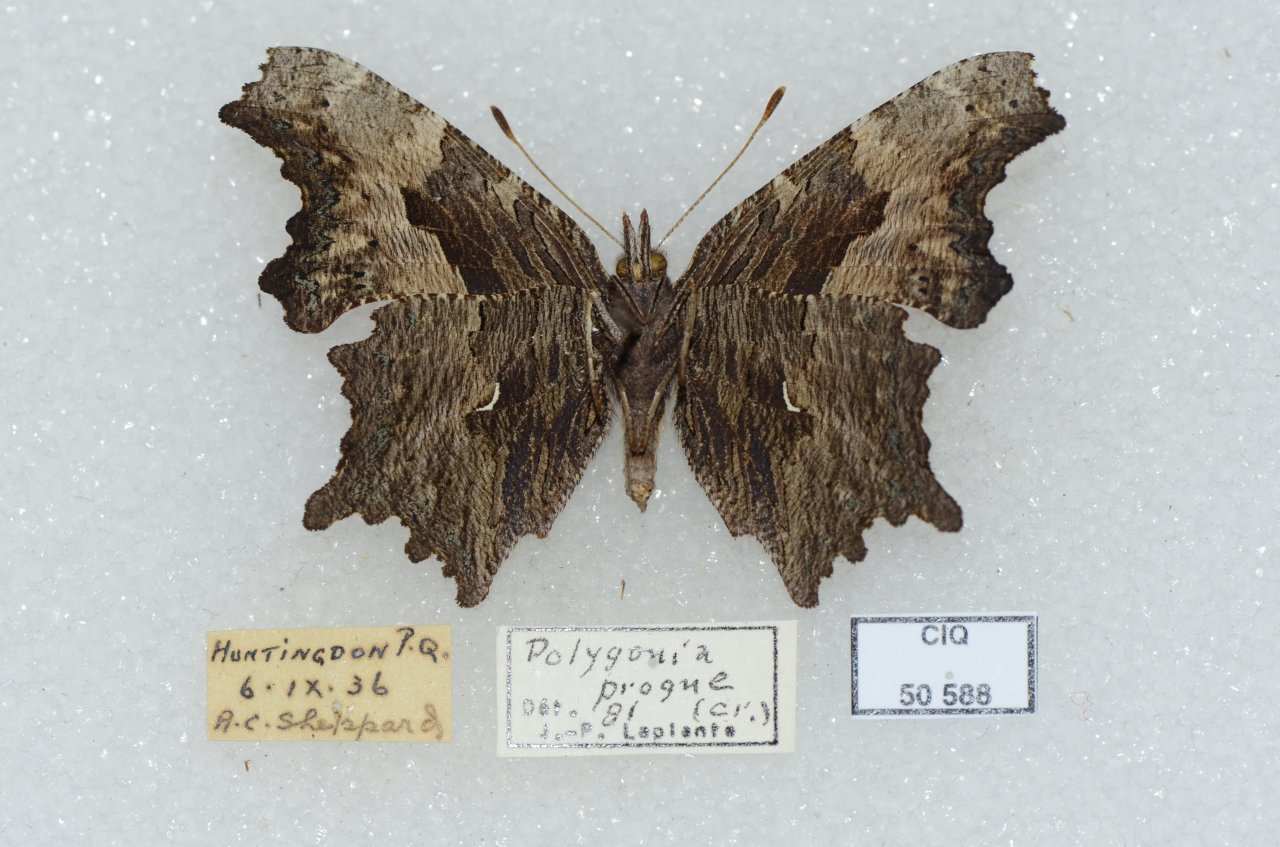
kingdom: Animalia
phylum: Arthropoda
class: Insecta
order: Lepidoptera
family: Nymphalidae
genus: Polygonia
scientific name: Polygonia progne
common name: Gray Comma
